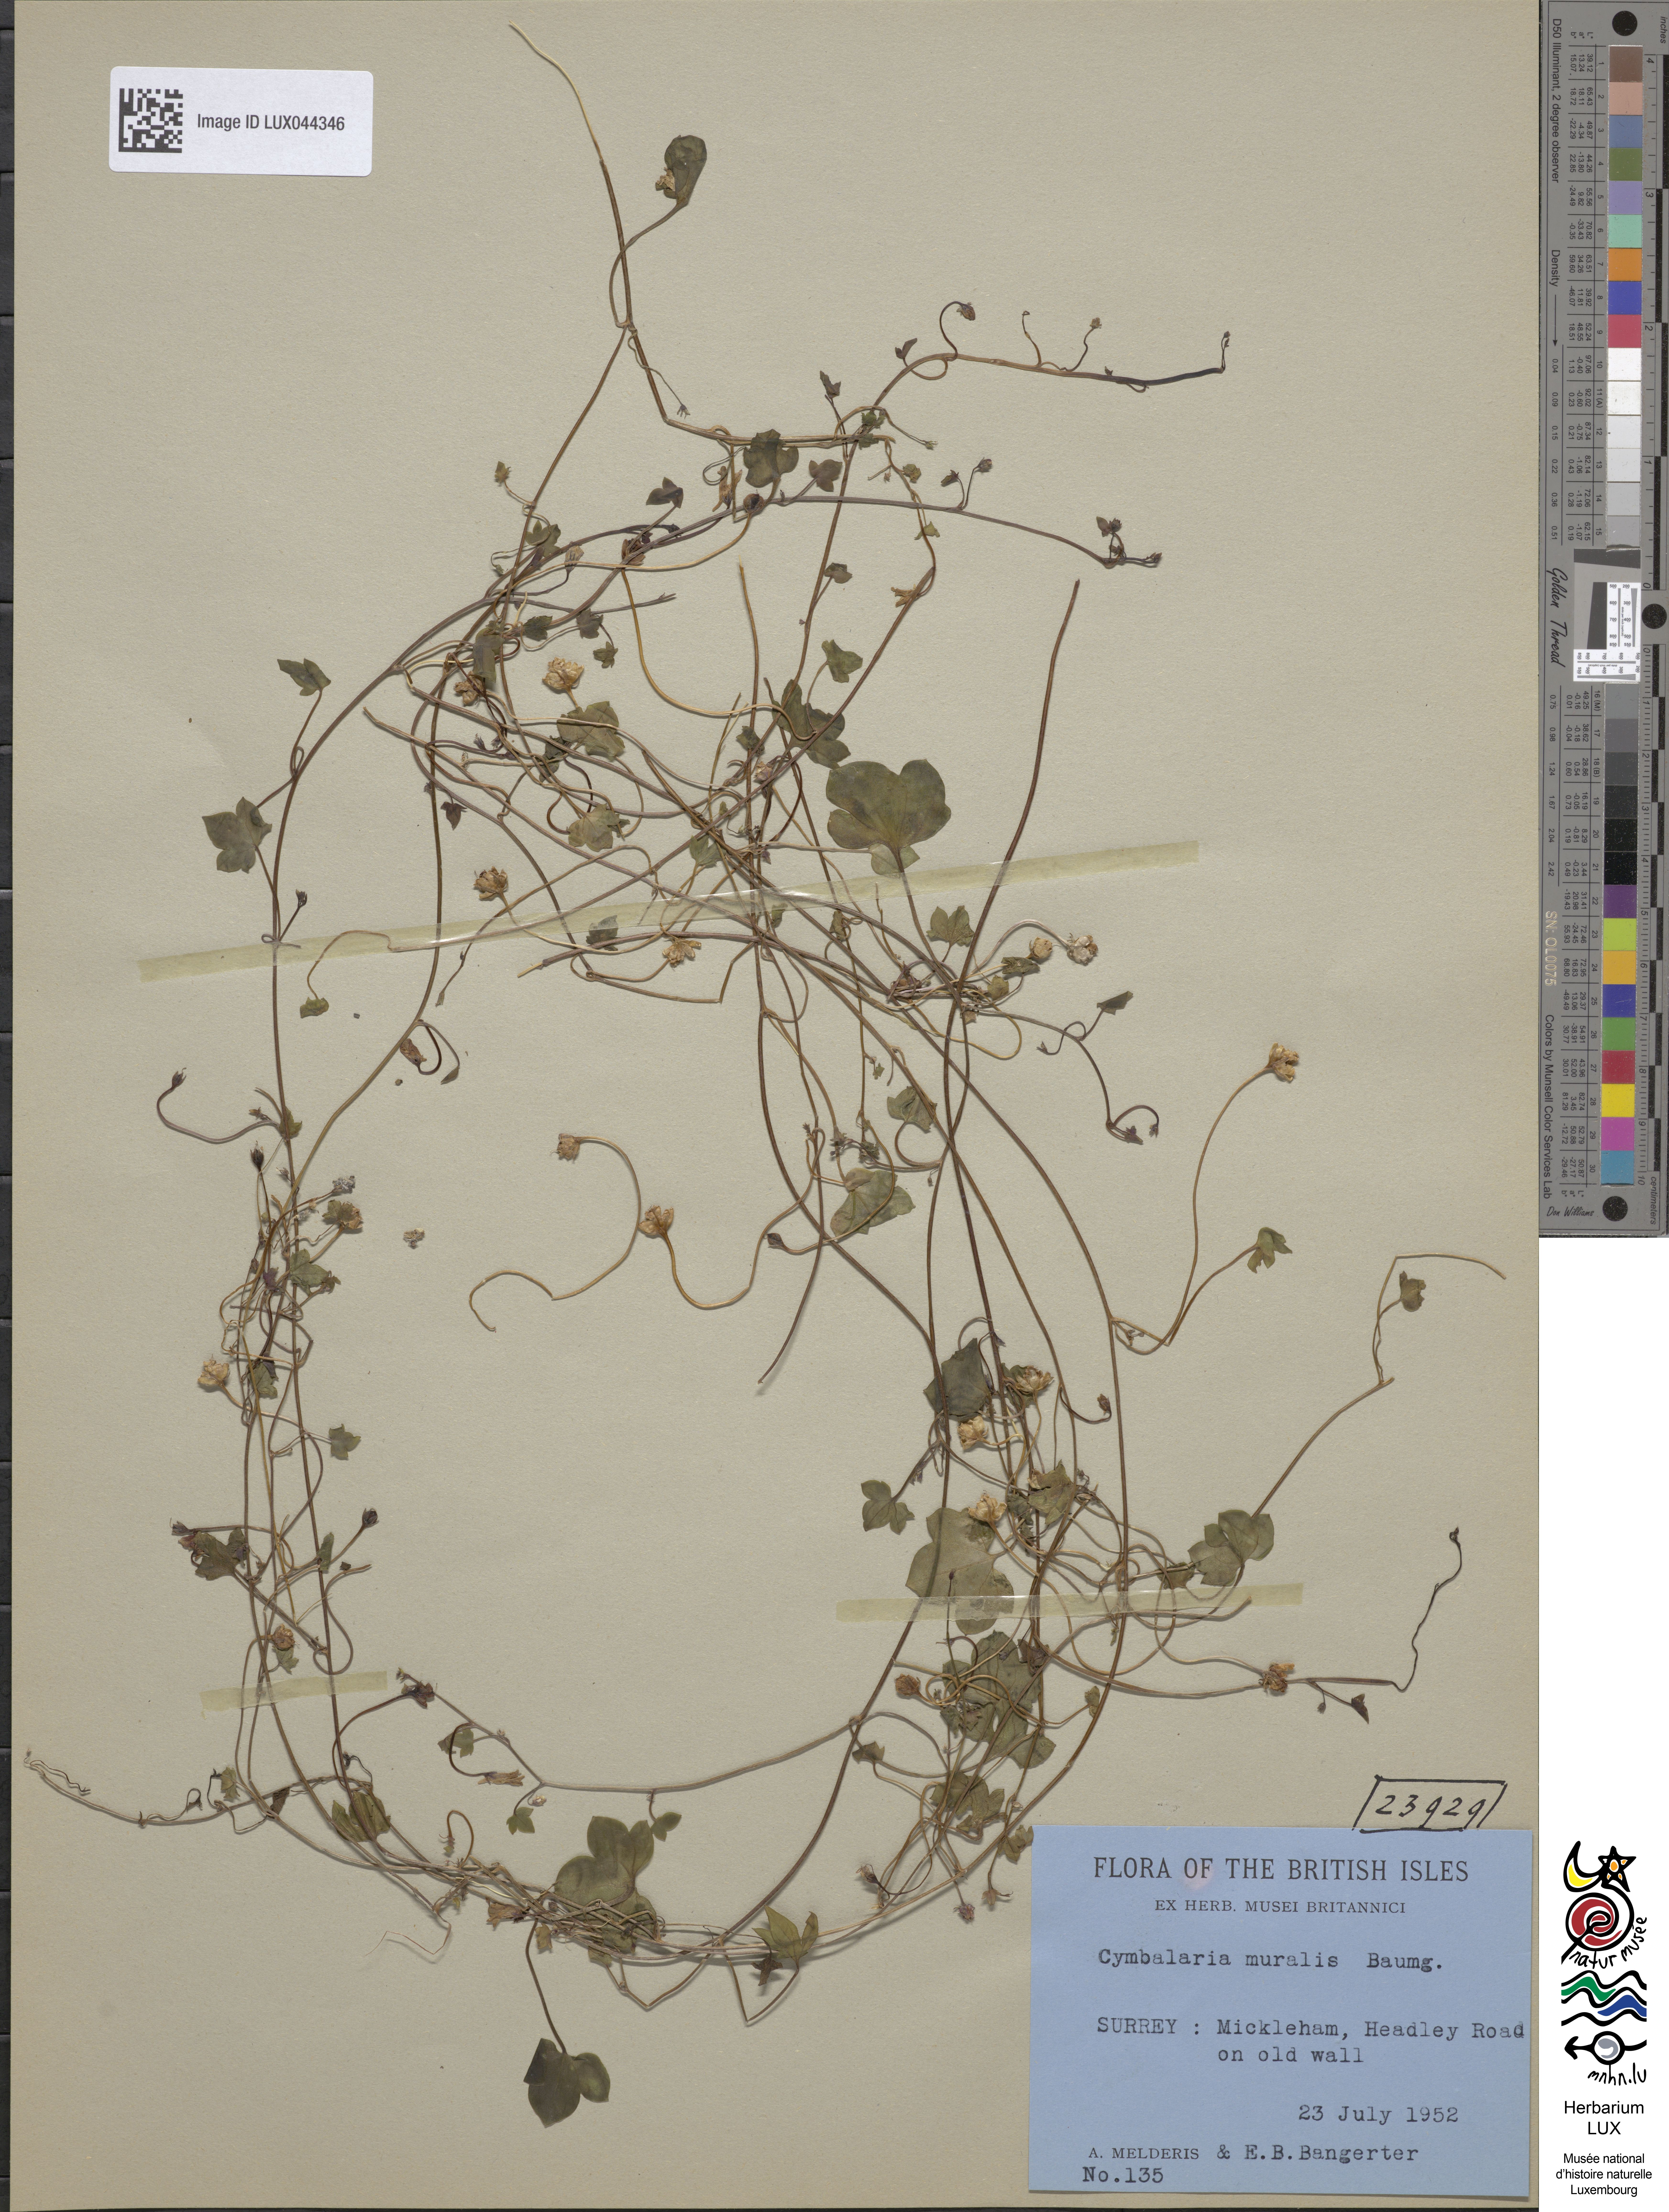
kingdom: Plantae
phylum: Tracheophyta
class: Magnoliopsida
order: Lamiales
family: Plantaginaceae
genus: Cymbalaria
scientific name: Cymbalaria muralis
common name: Ivy-leaved toadflax
